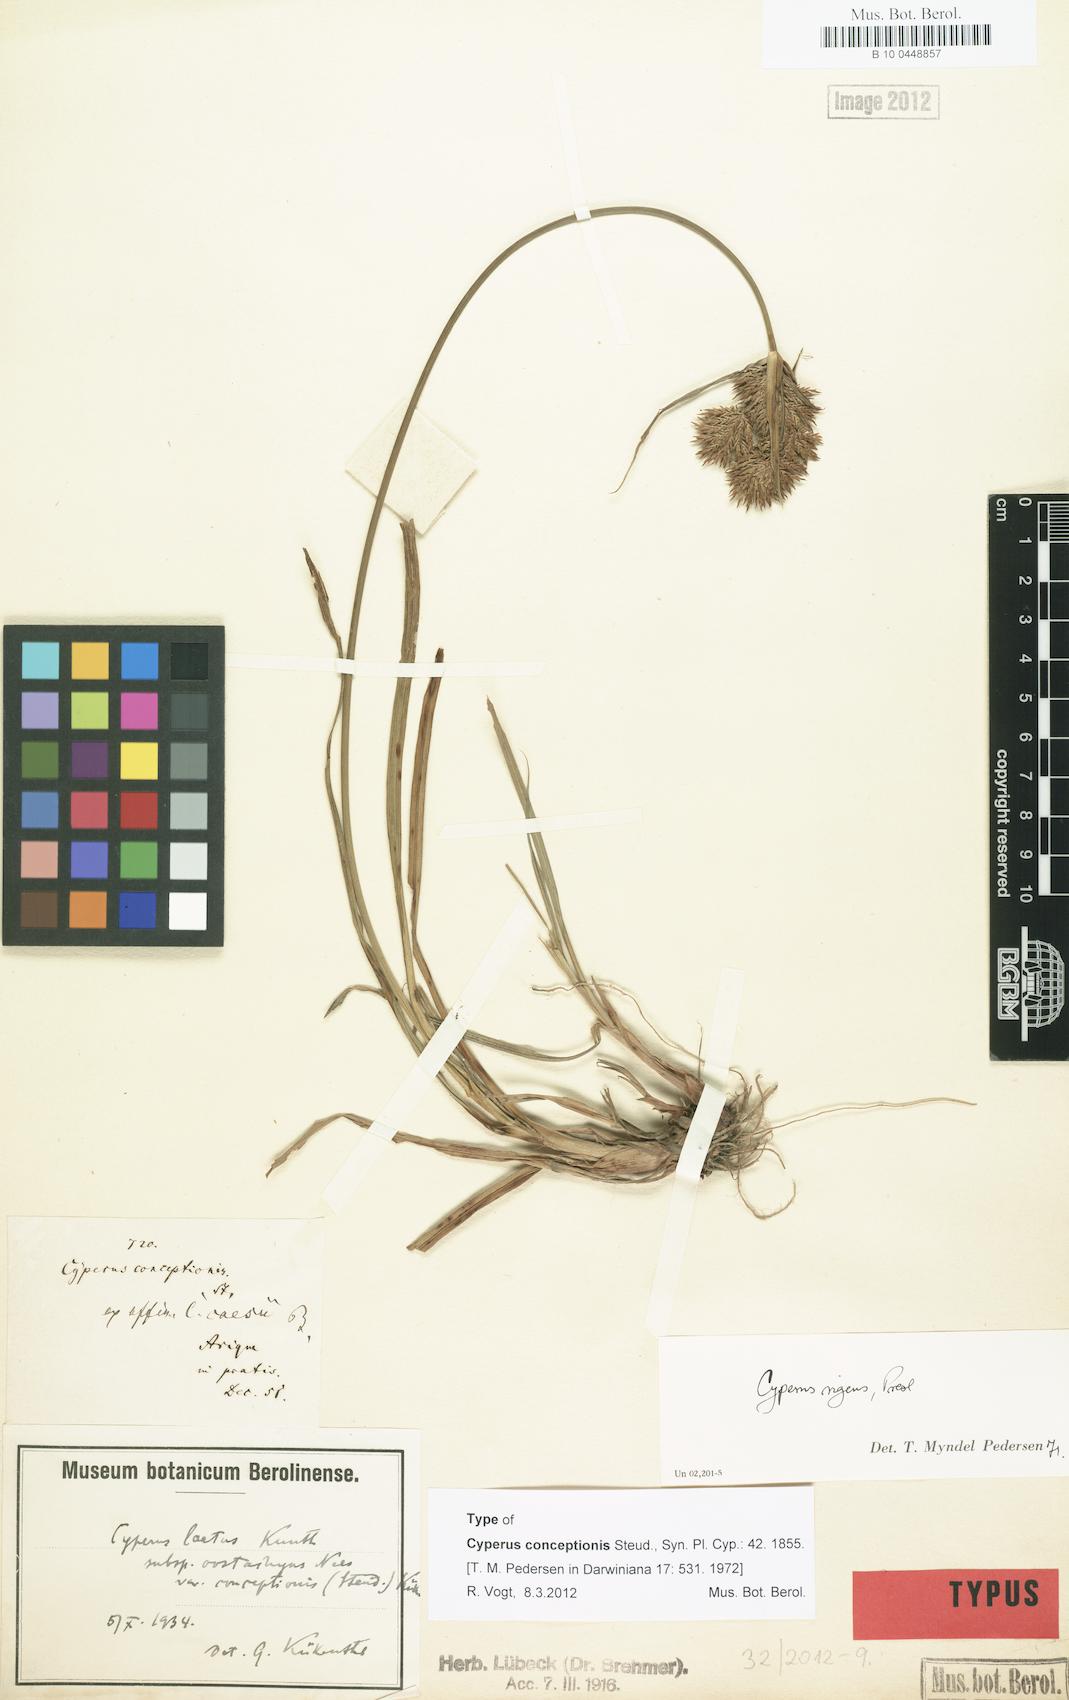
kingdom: Plantae
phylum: Tracheophyta
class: Liliopsida
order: Poales
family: Cyperaceae
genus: Cyperus
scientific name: Cyperus rigens
